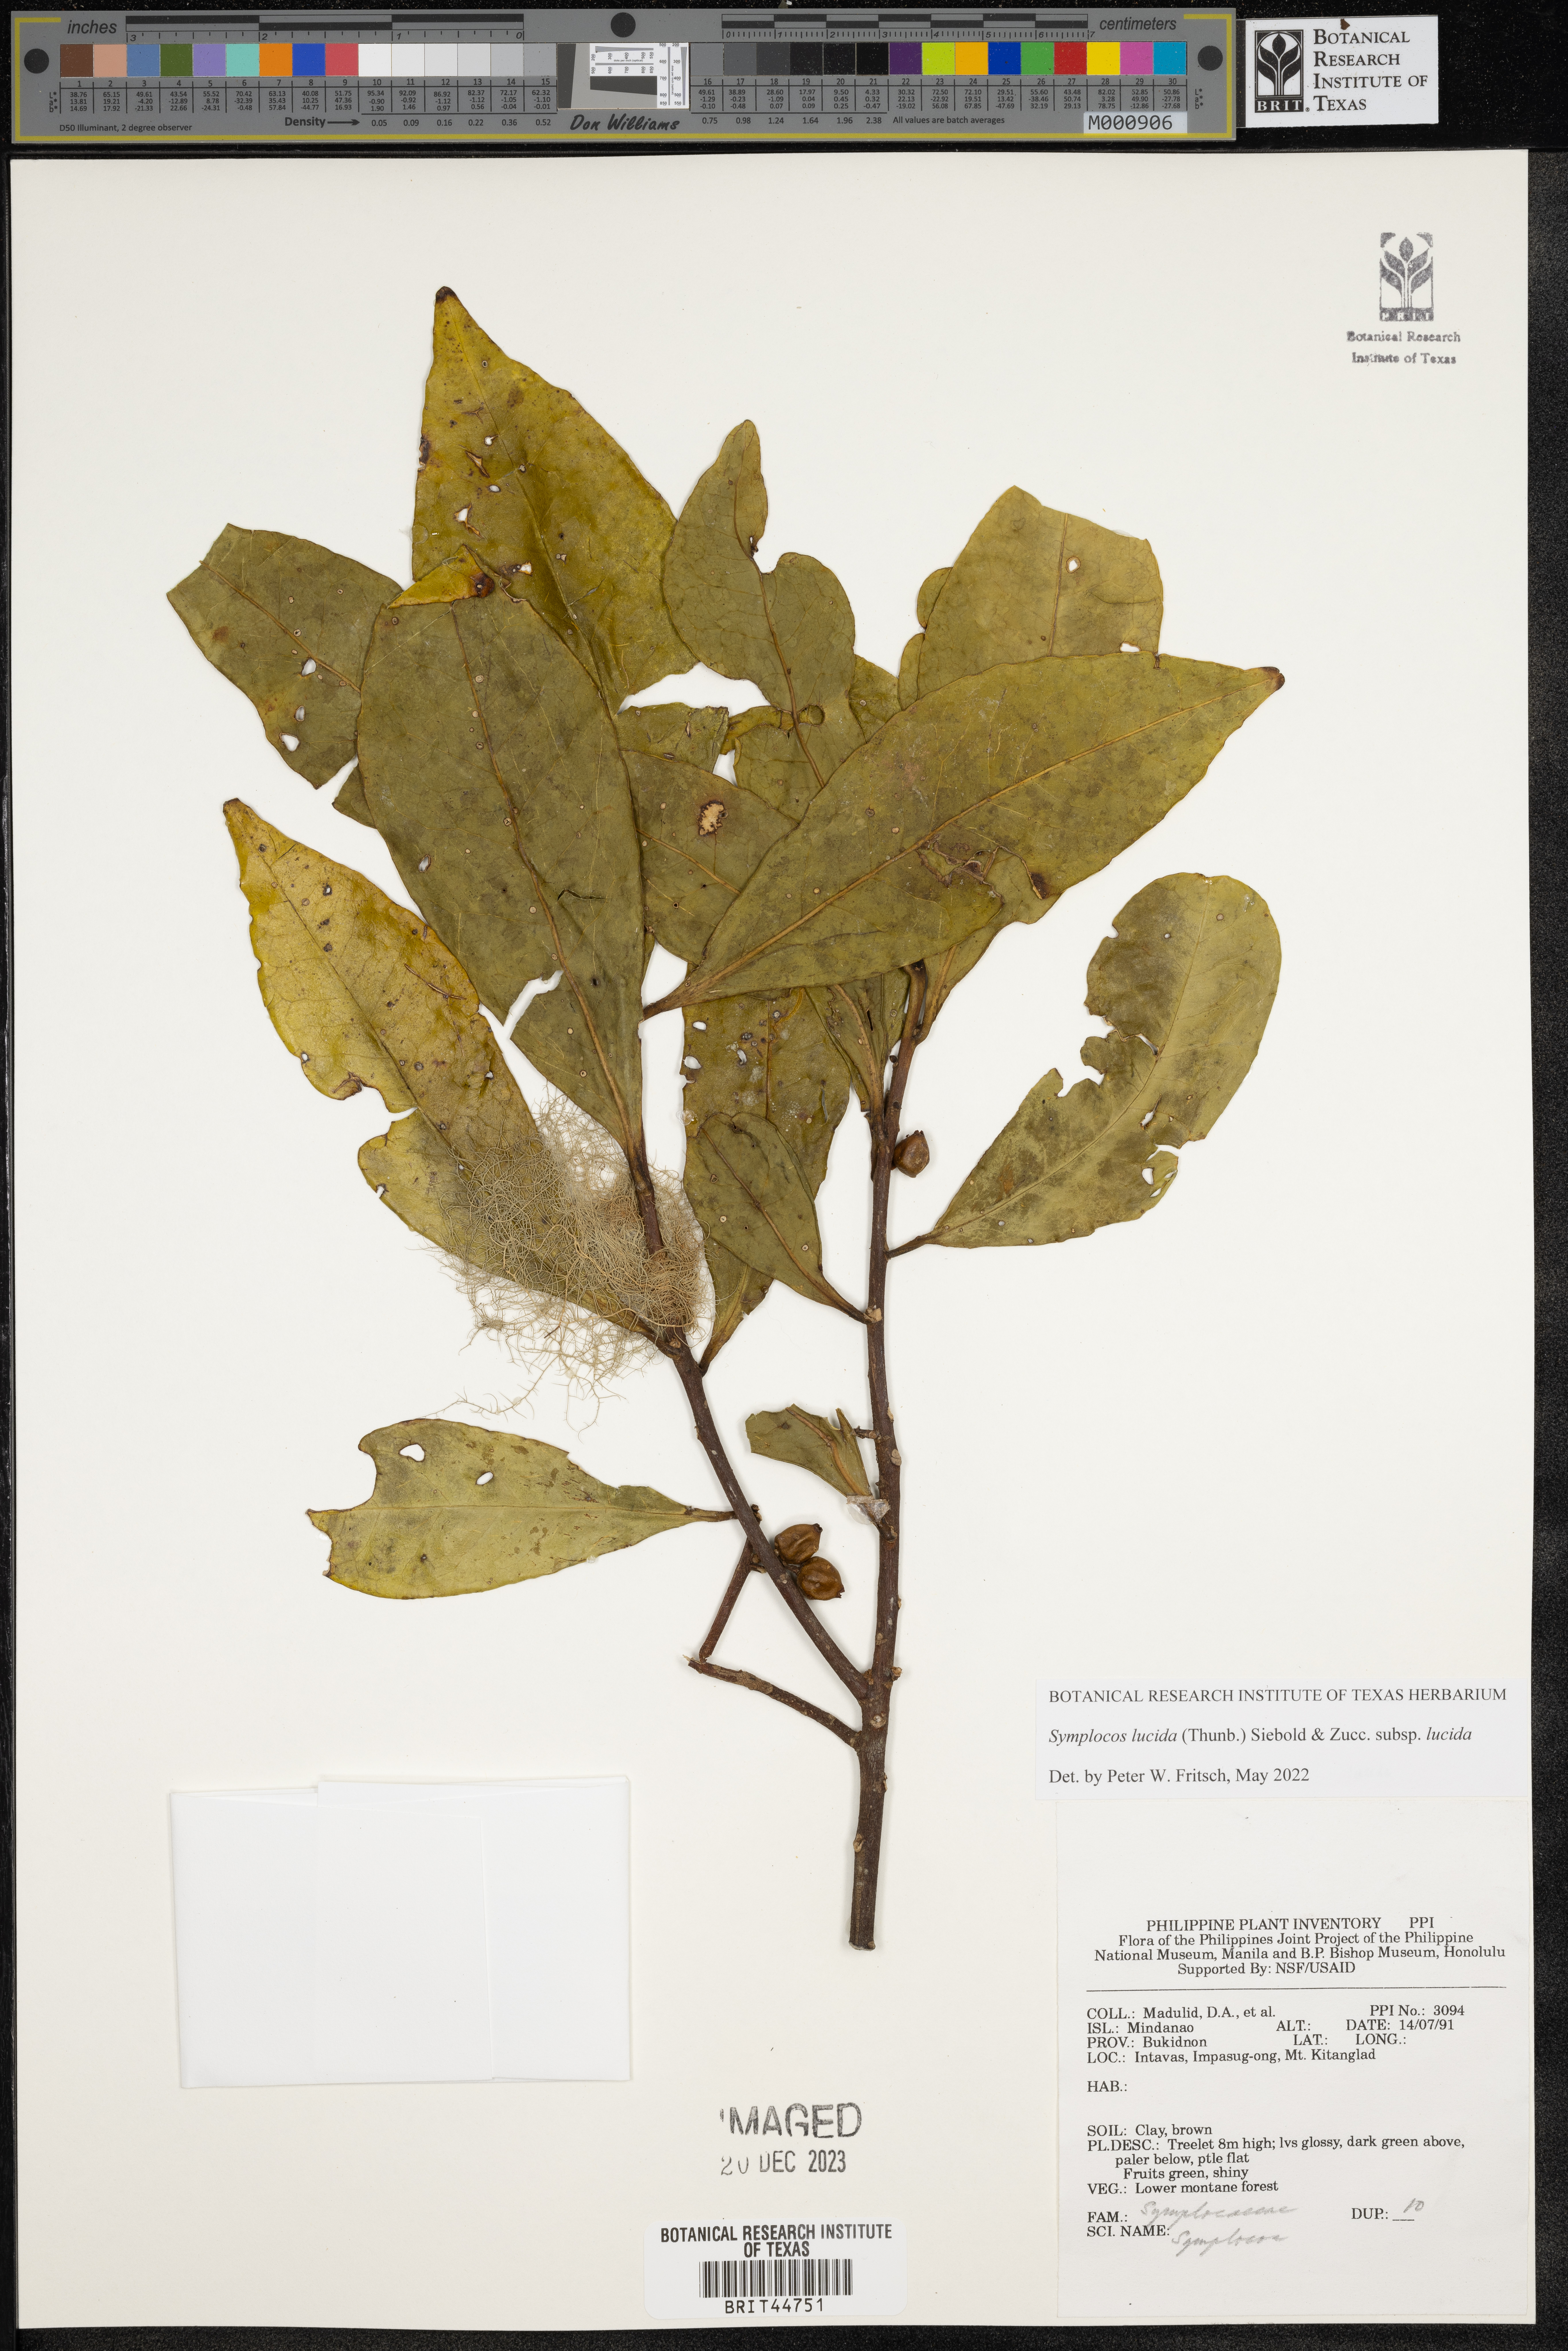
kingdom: Plantae
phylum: Tracheophyta
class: Magnoliopsida
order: Ericales
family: Symplocaceae
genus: Symplocos
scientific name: Symplocos
